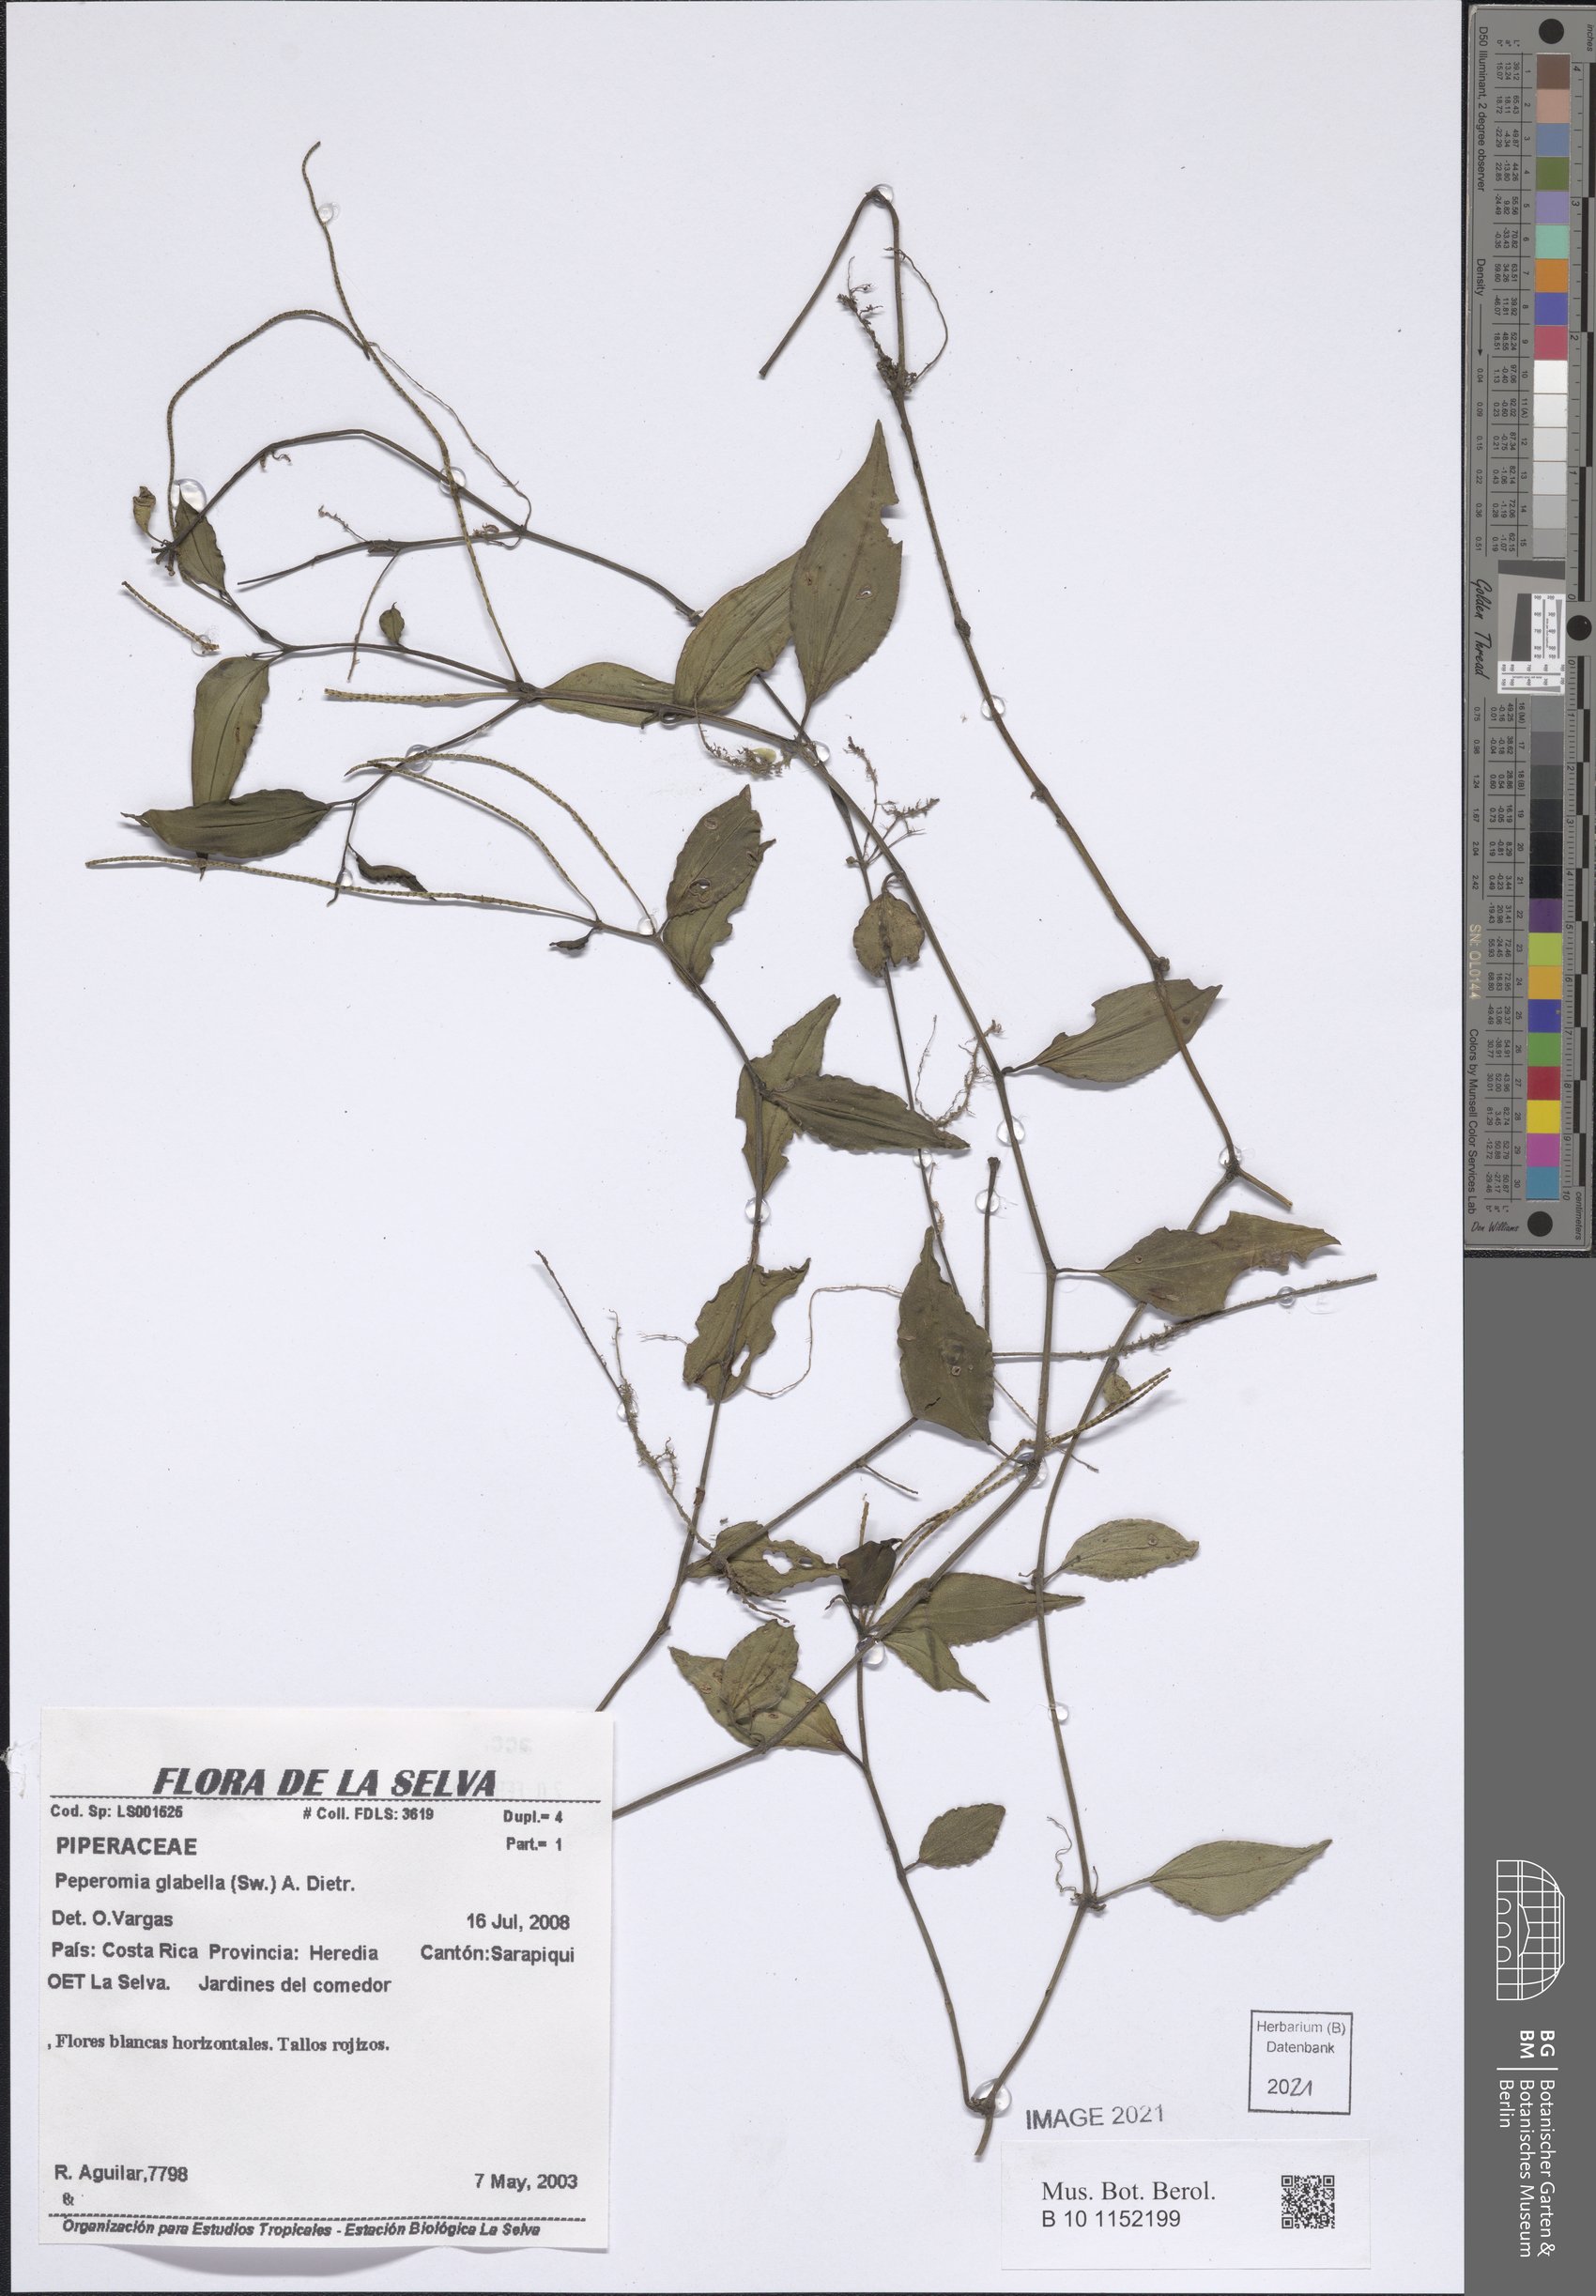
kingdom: Plantae
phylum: Tracheophyta
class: Magnoliopsida
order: Piperales
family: Piperaceae
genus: Peperomia
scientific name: Peperomia glabella
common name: Cypress peperomia
